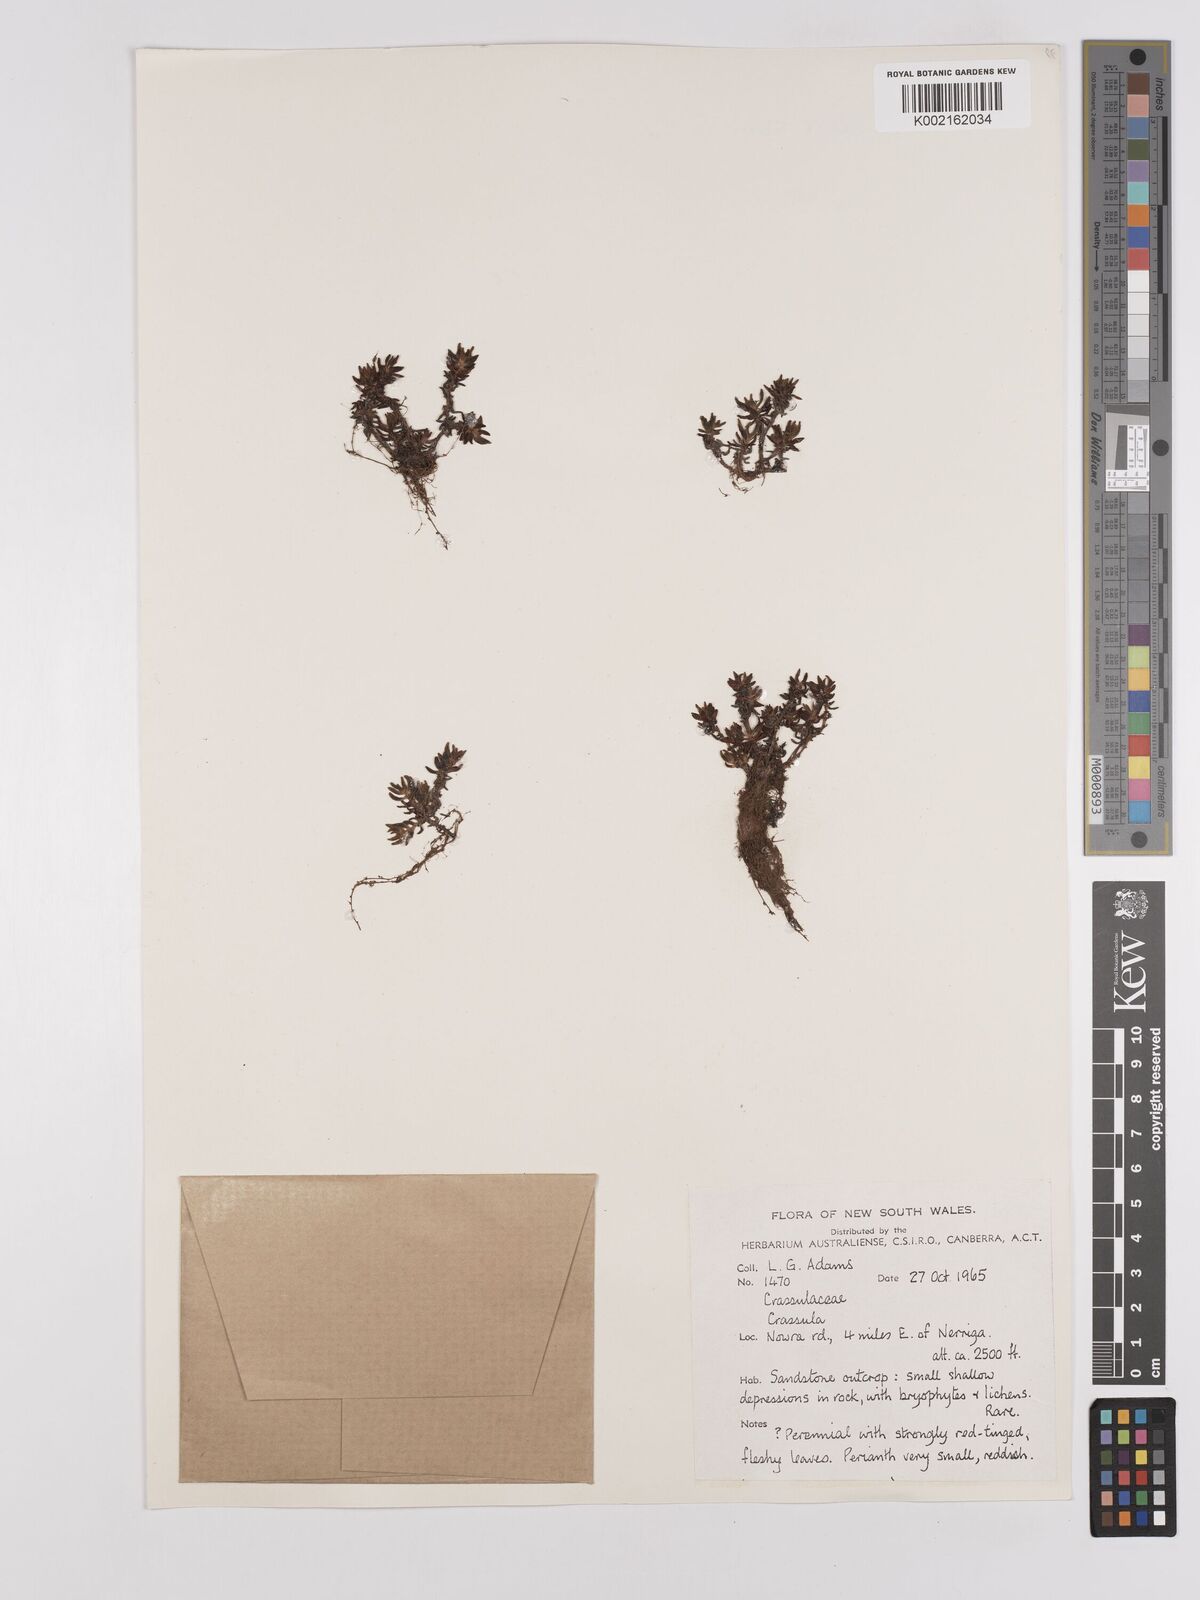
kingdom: Plantae
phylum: Tracheophyta
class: Magnoliopsida
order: Saxifragales
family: Crassulaceae
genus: Crassula
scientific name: Crassula moschata
